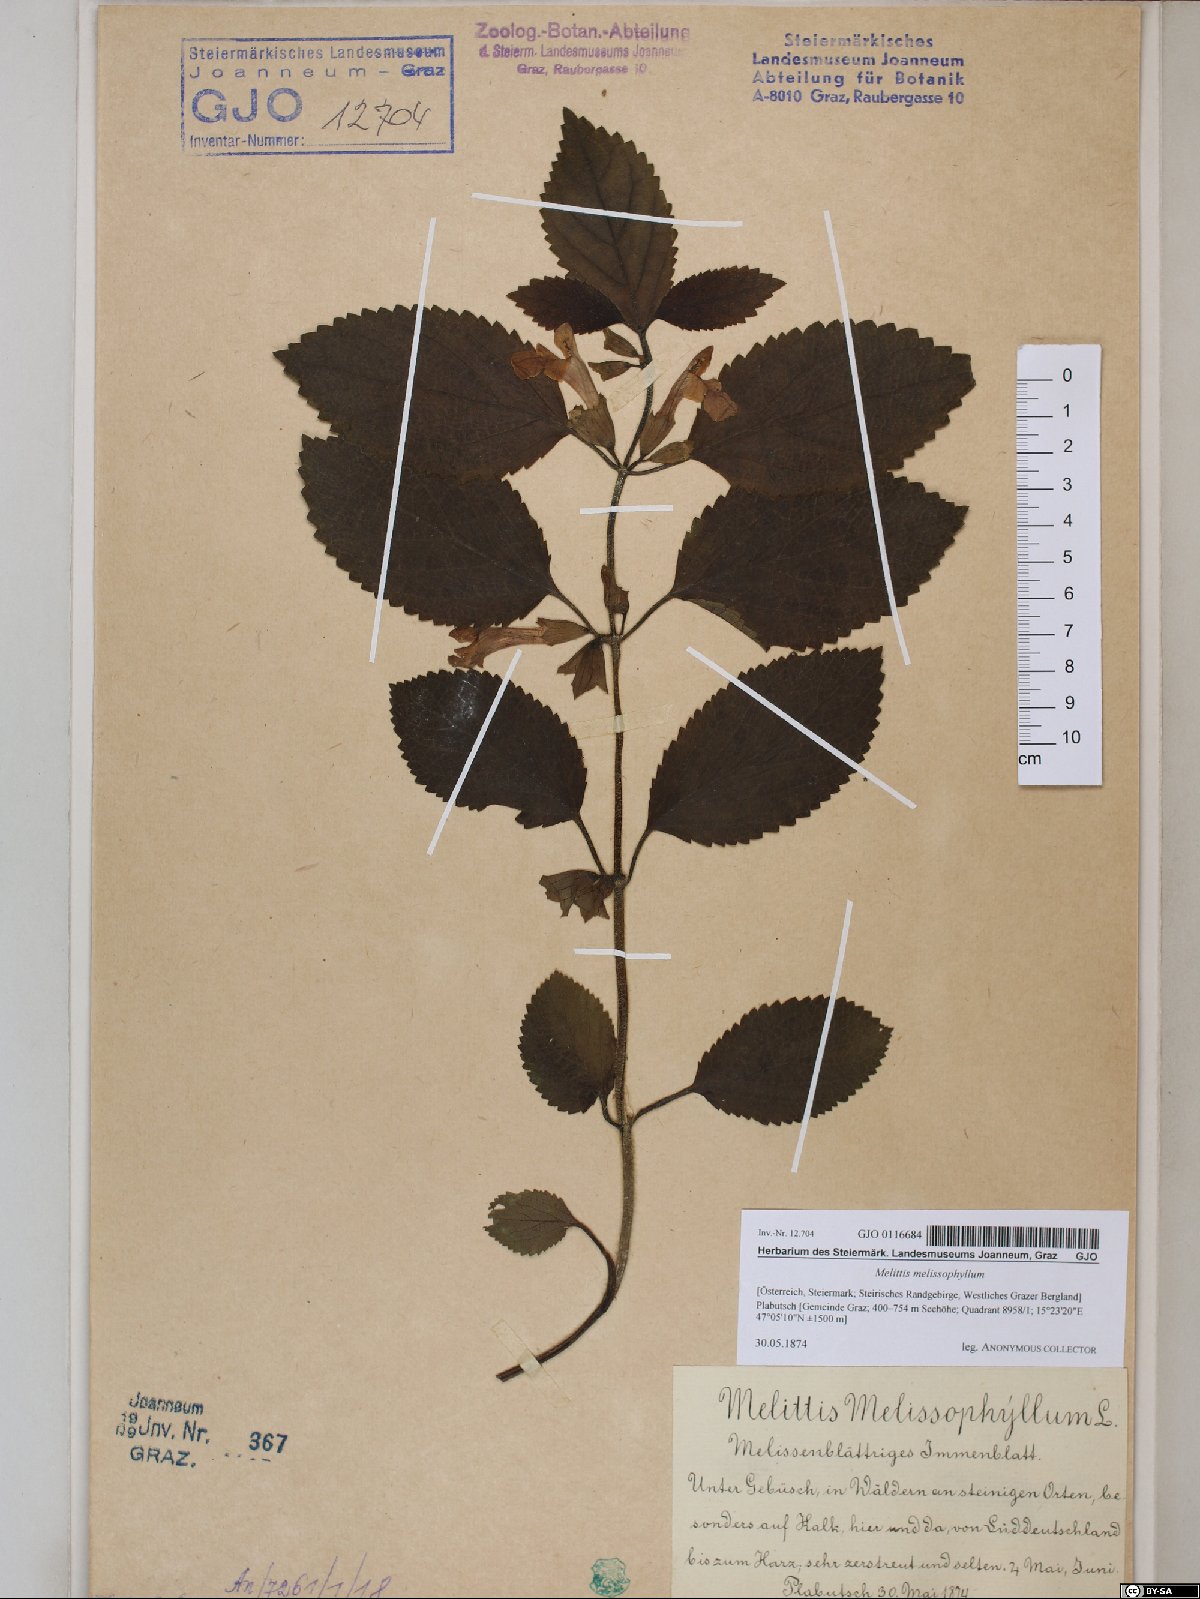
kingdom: Plantae
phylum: Tracheophyta
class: Magnoliopsida
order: Lamiales
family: Lamiaceae
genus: Melittis
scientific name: Melittis melissophyllum
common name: Bastard balm
